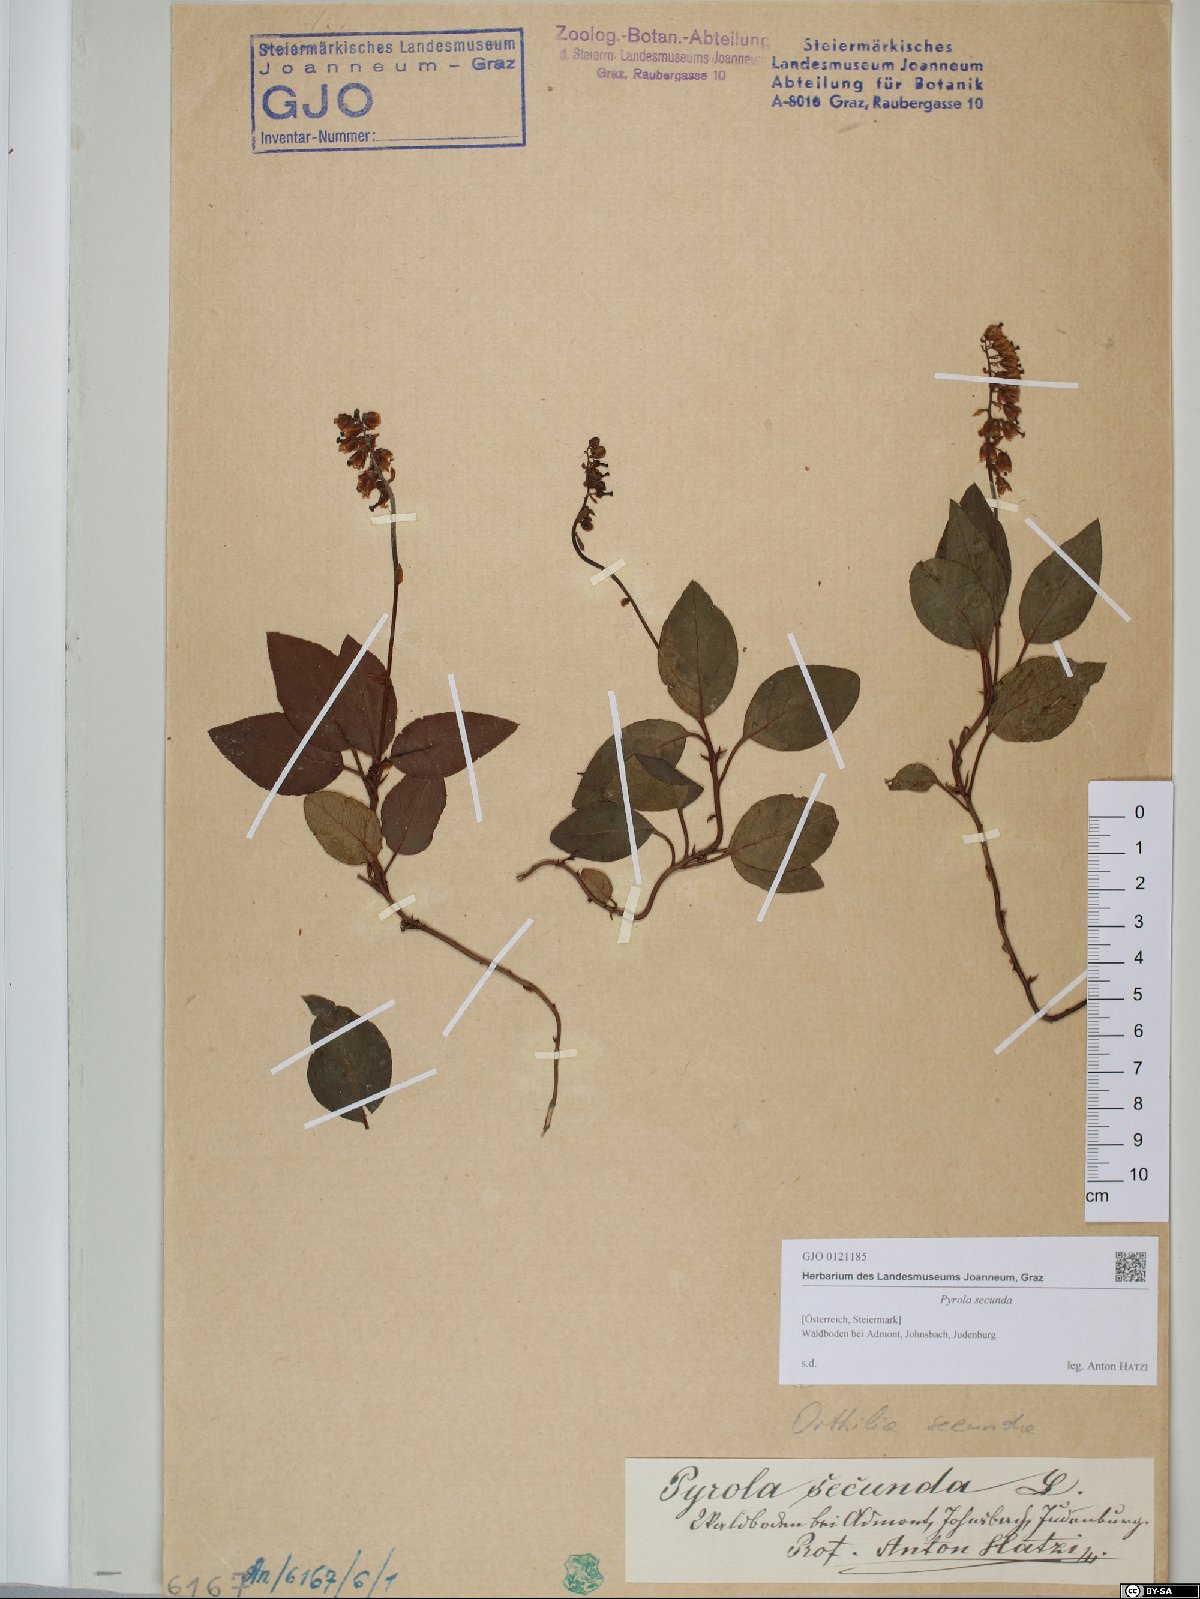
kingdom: Plantae
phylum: Tracheophyta
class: Magnoliopsida
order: Ericales
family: Ericaceae
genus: Orthilia
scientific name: Orthilia secunda
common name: One-sided orthilia
